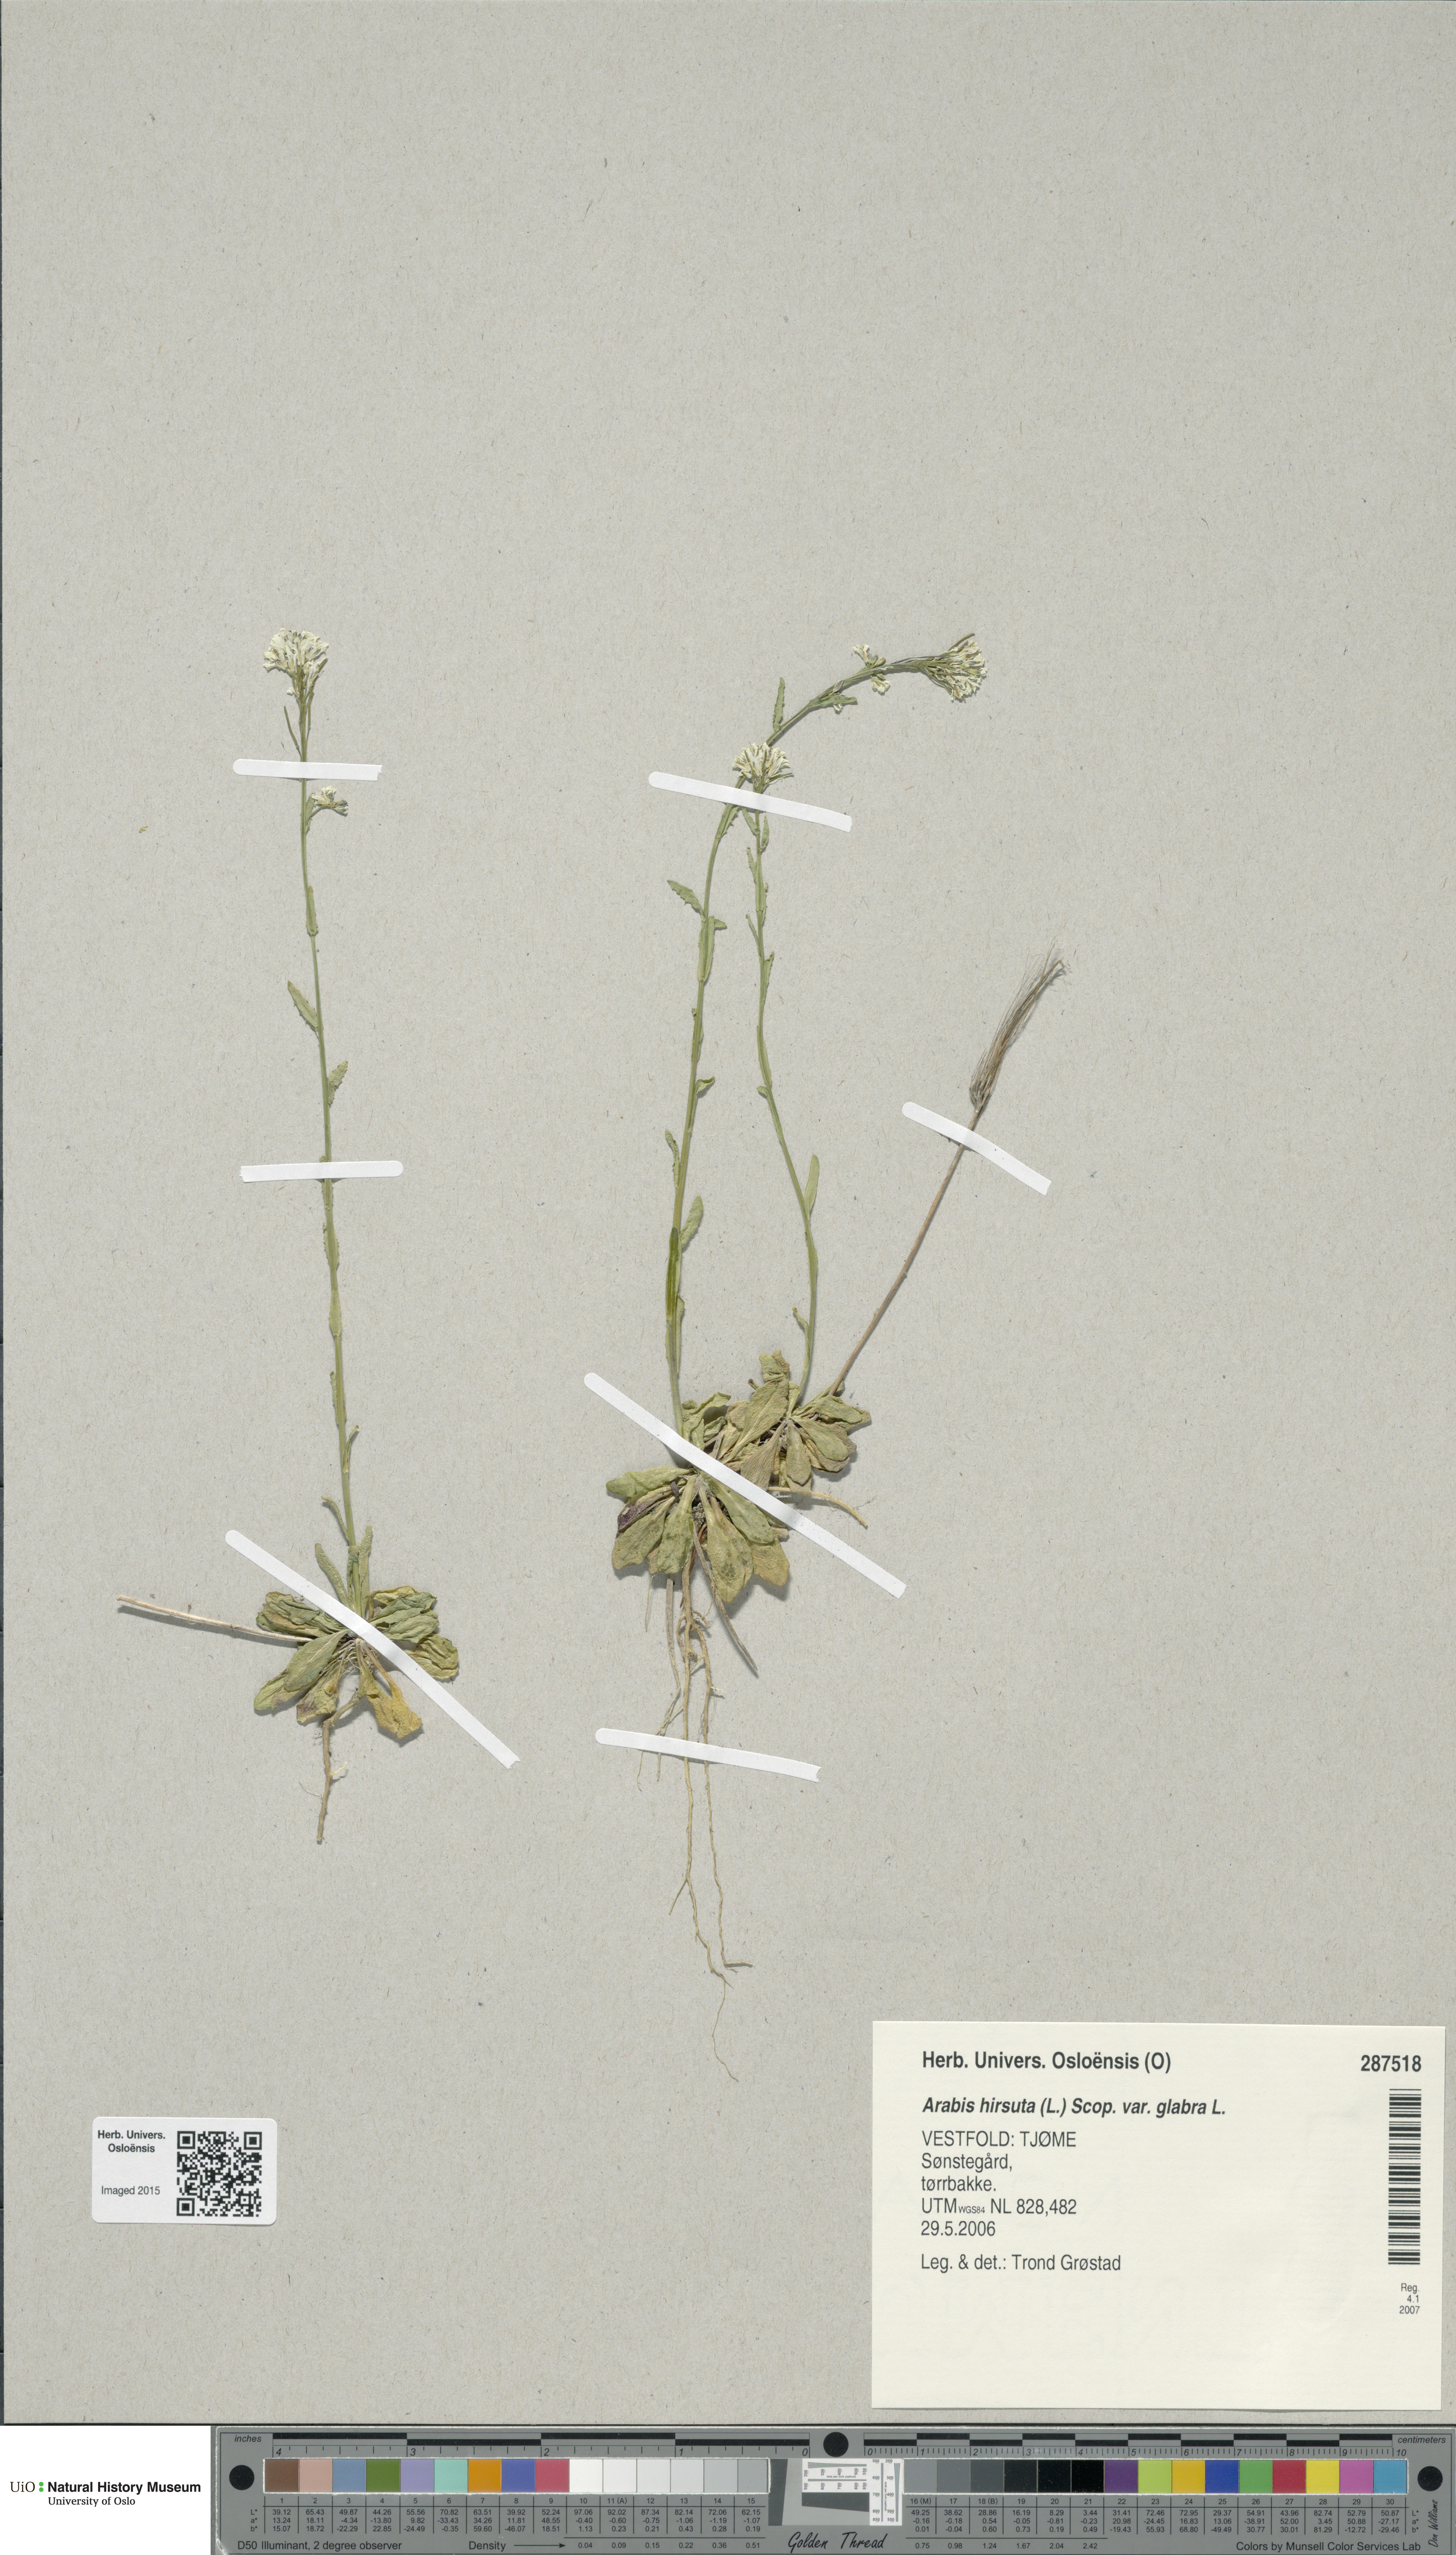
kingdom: Plantae
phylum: Tracheophyta
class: Magnoliopsida
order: Brassicales
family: Brassicaceae
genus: Arabis
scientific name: Arabis hirsuta
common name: Hairy rock-cress
